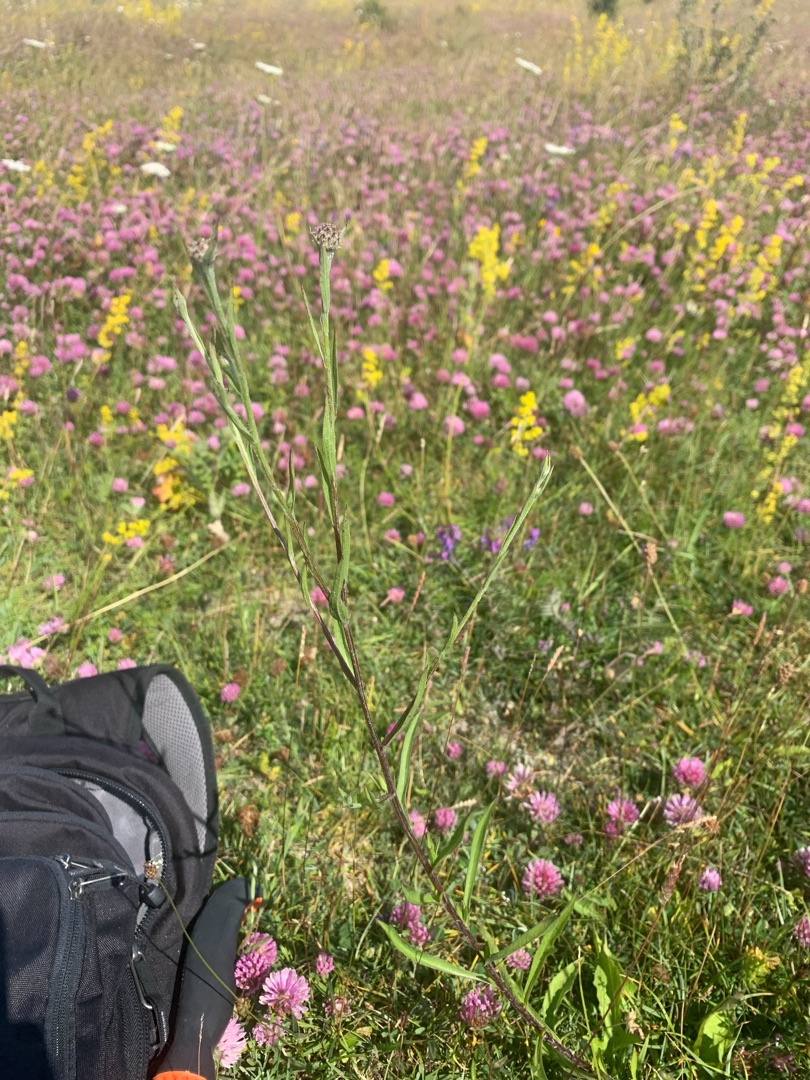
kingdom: Plantae
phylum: Tracheophyta
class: Magnoliopsida
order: Asterales
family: Asteraceae
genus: Centaurea
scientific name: Centaurea jacea
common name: Almindelig knopurt
